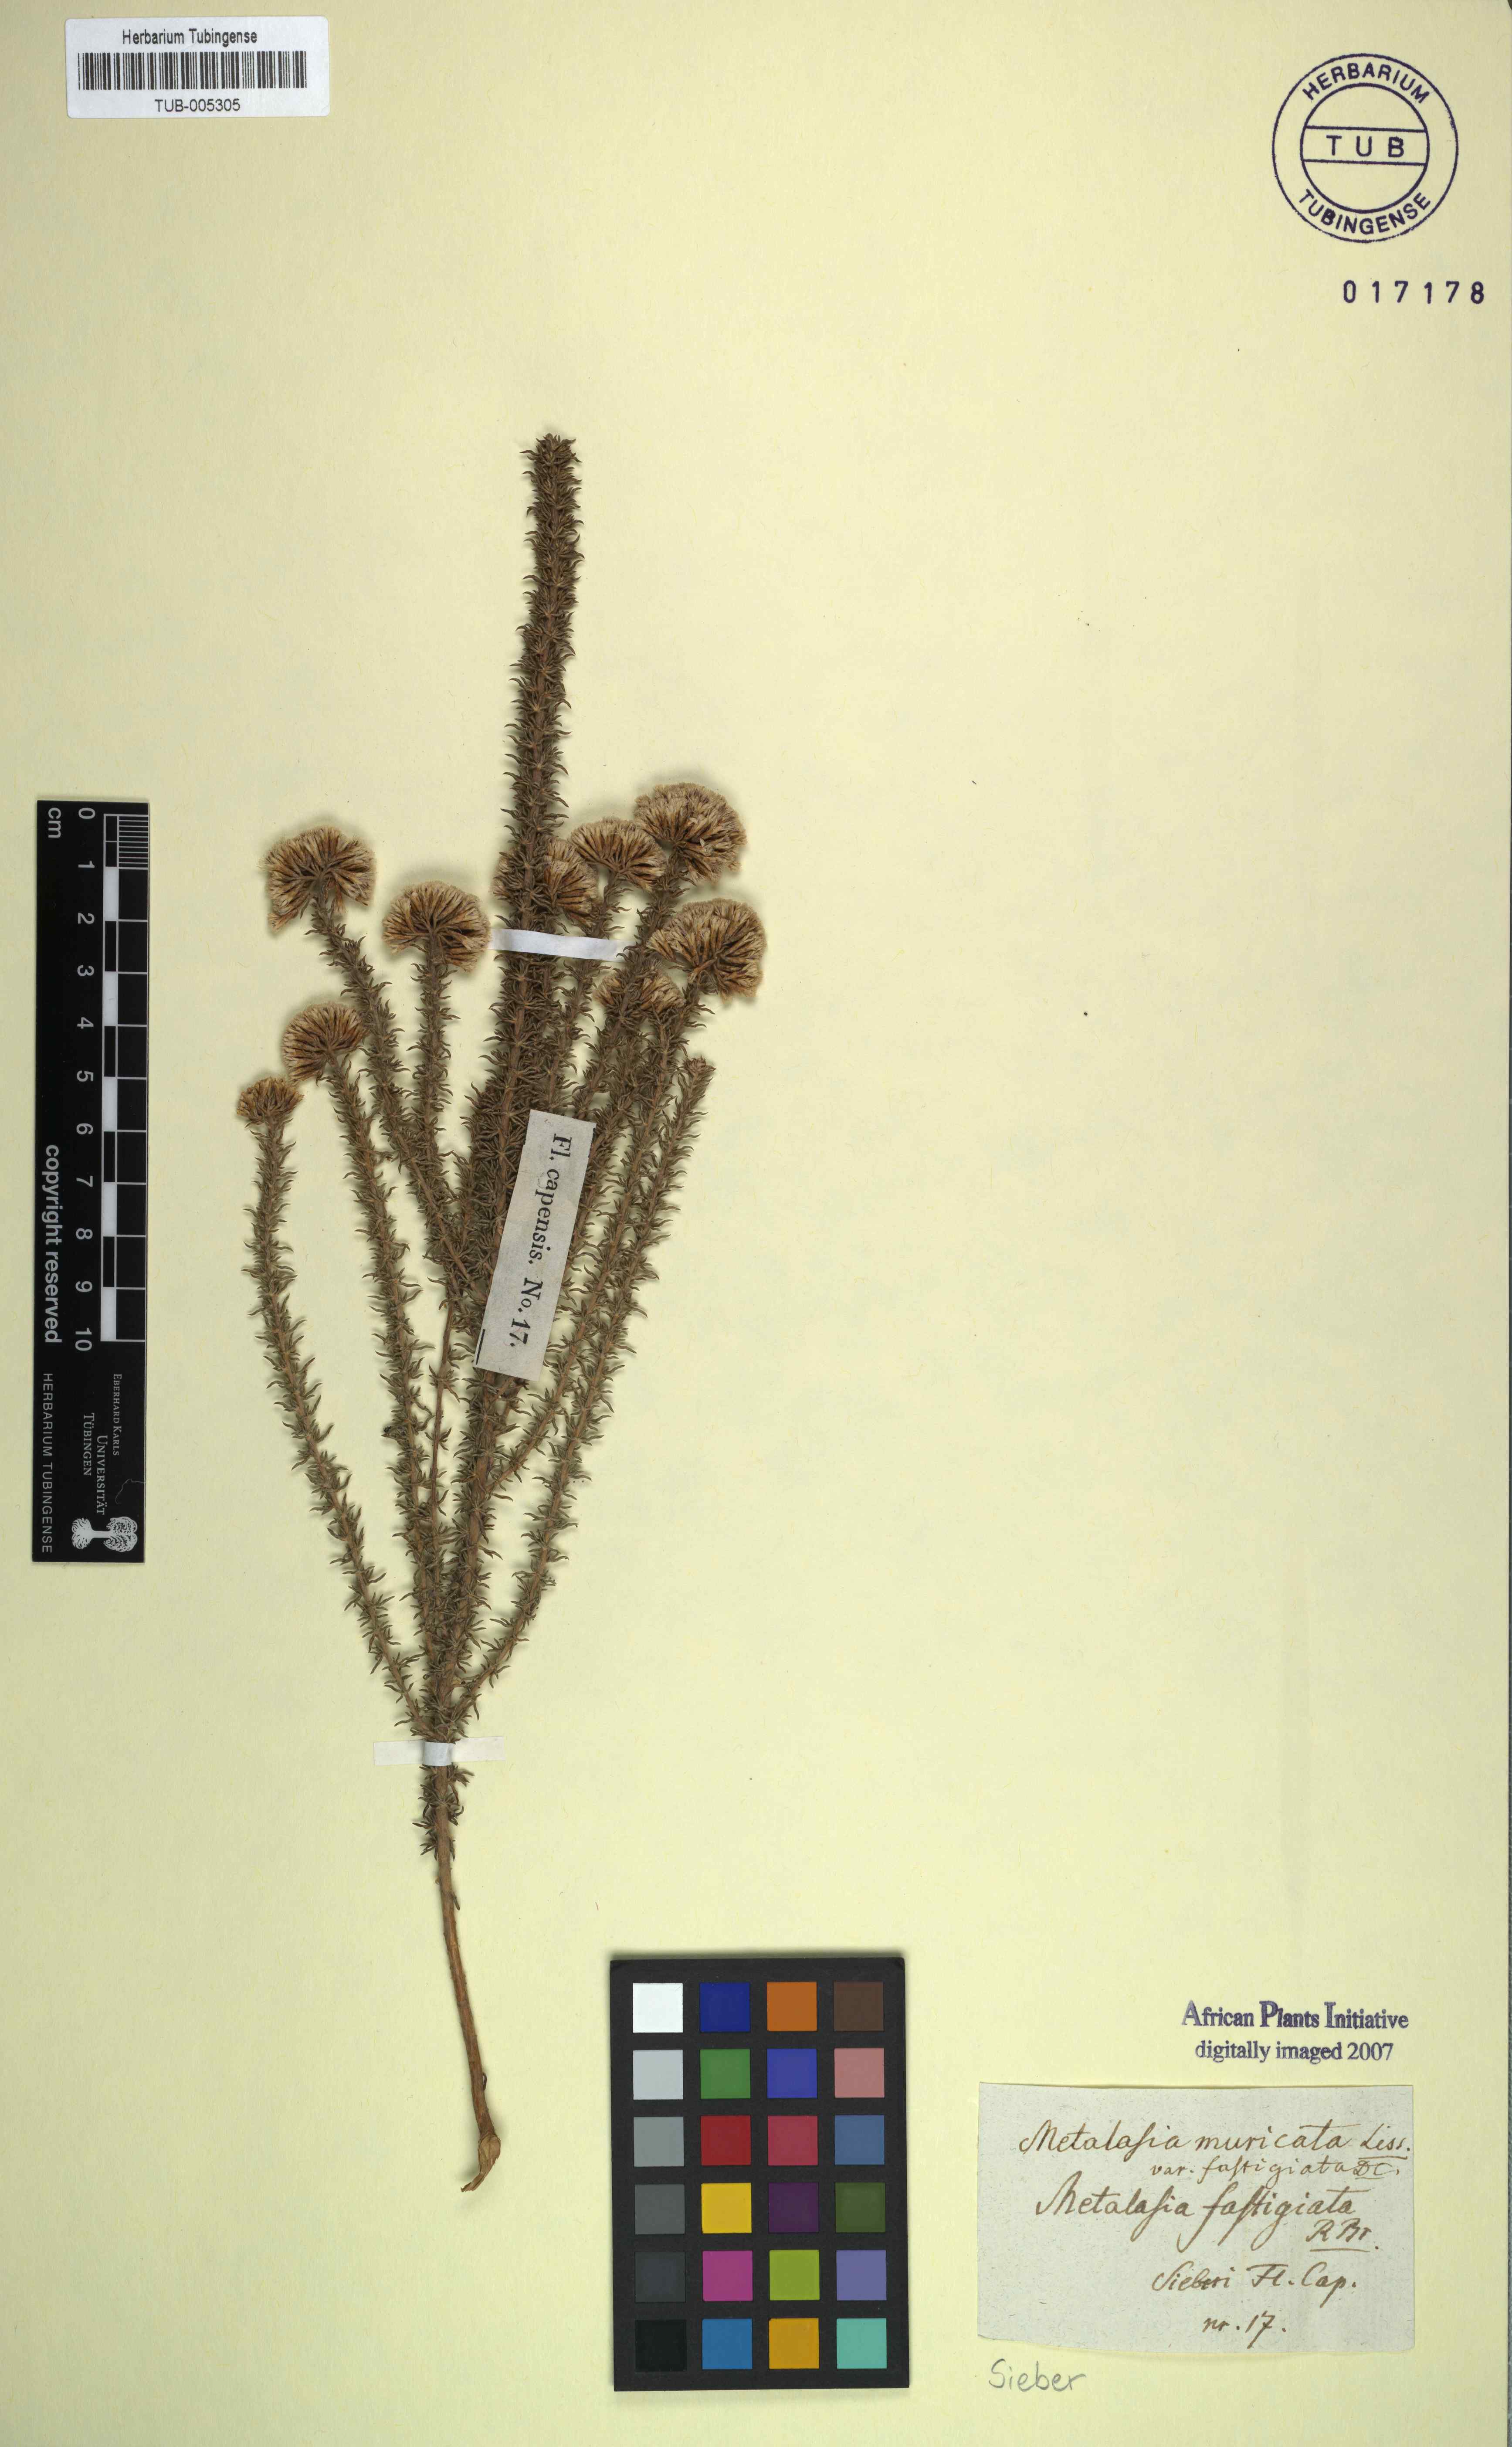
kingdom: Plantae
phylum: Tracheophyta
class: Magnoliopsida
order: Asterales
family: Asteraceae
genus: Metalasia
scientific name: Metalasia muricata
